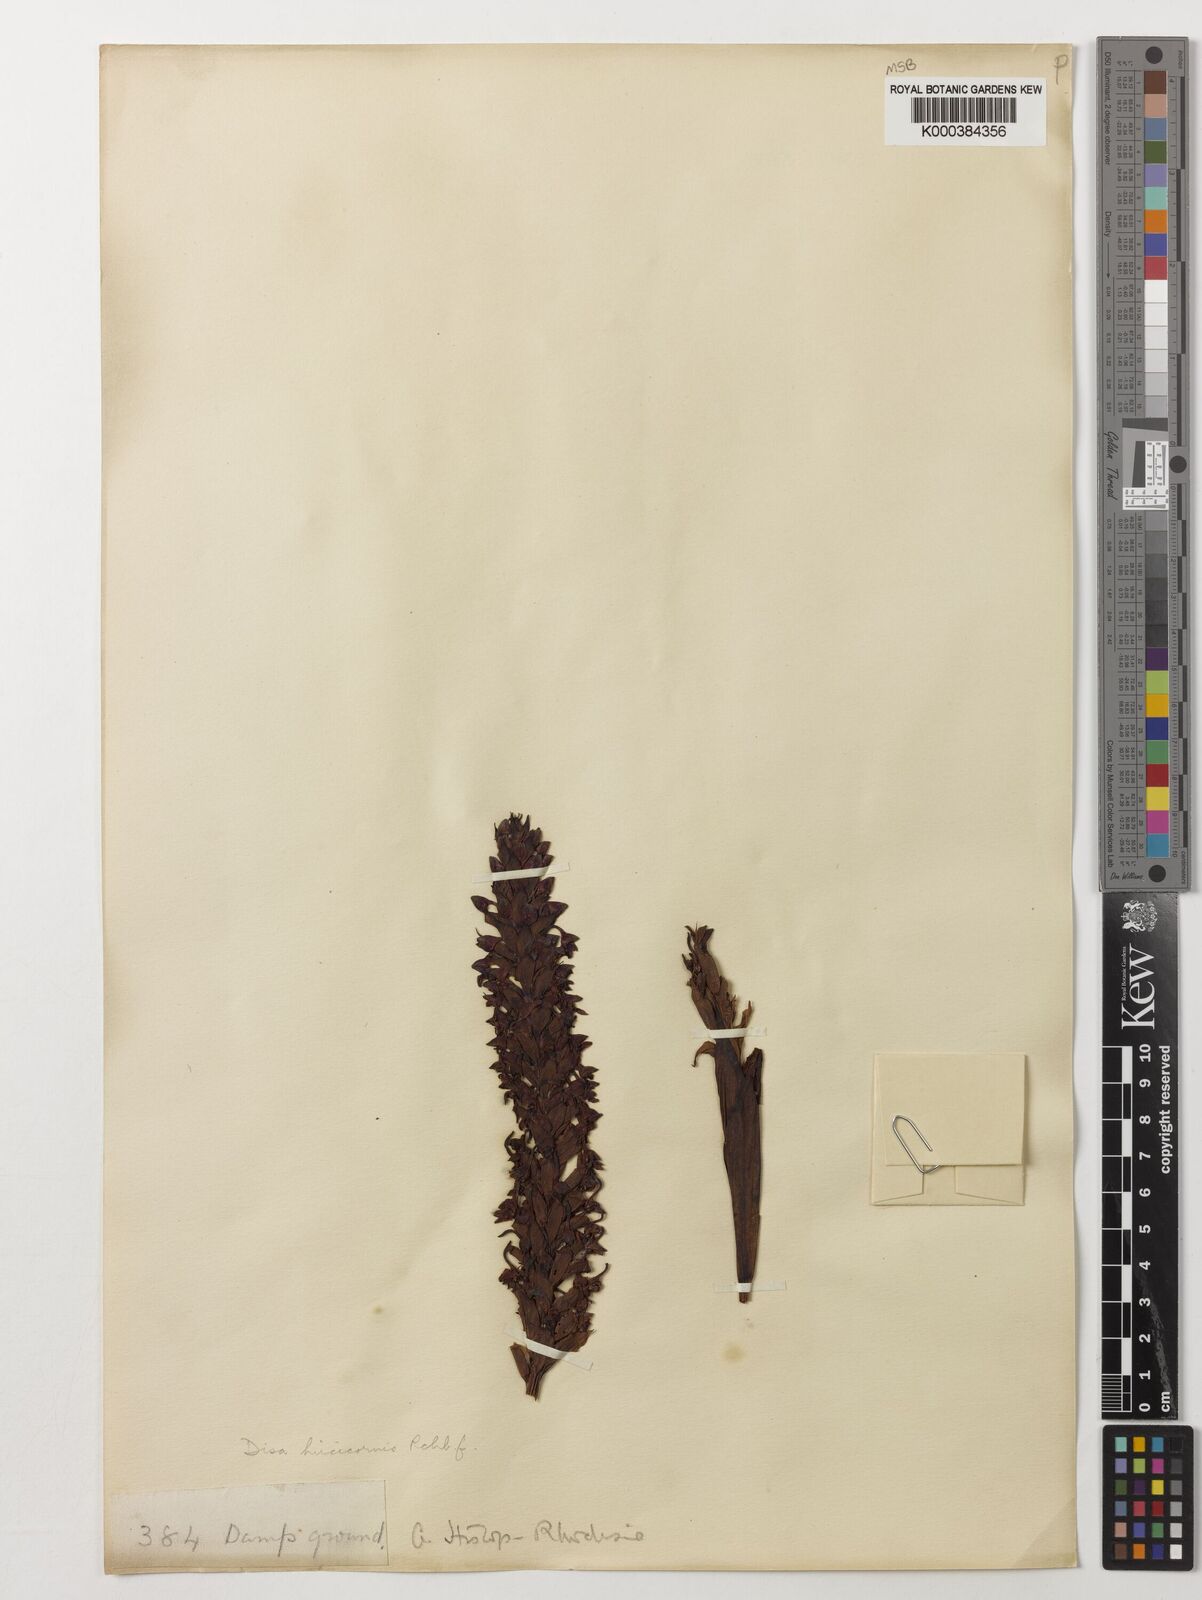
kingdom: Plantae
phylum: Tracheophyta
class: Liliopsida
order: Asparagales
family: Orchidaceae
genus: Disa
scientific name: Disa hircicornis
